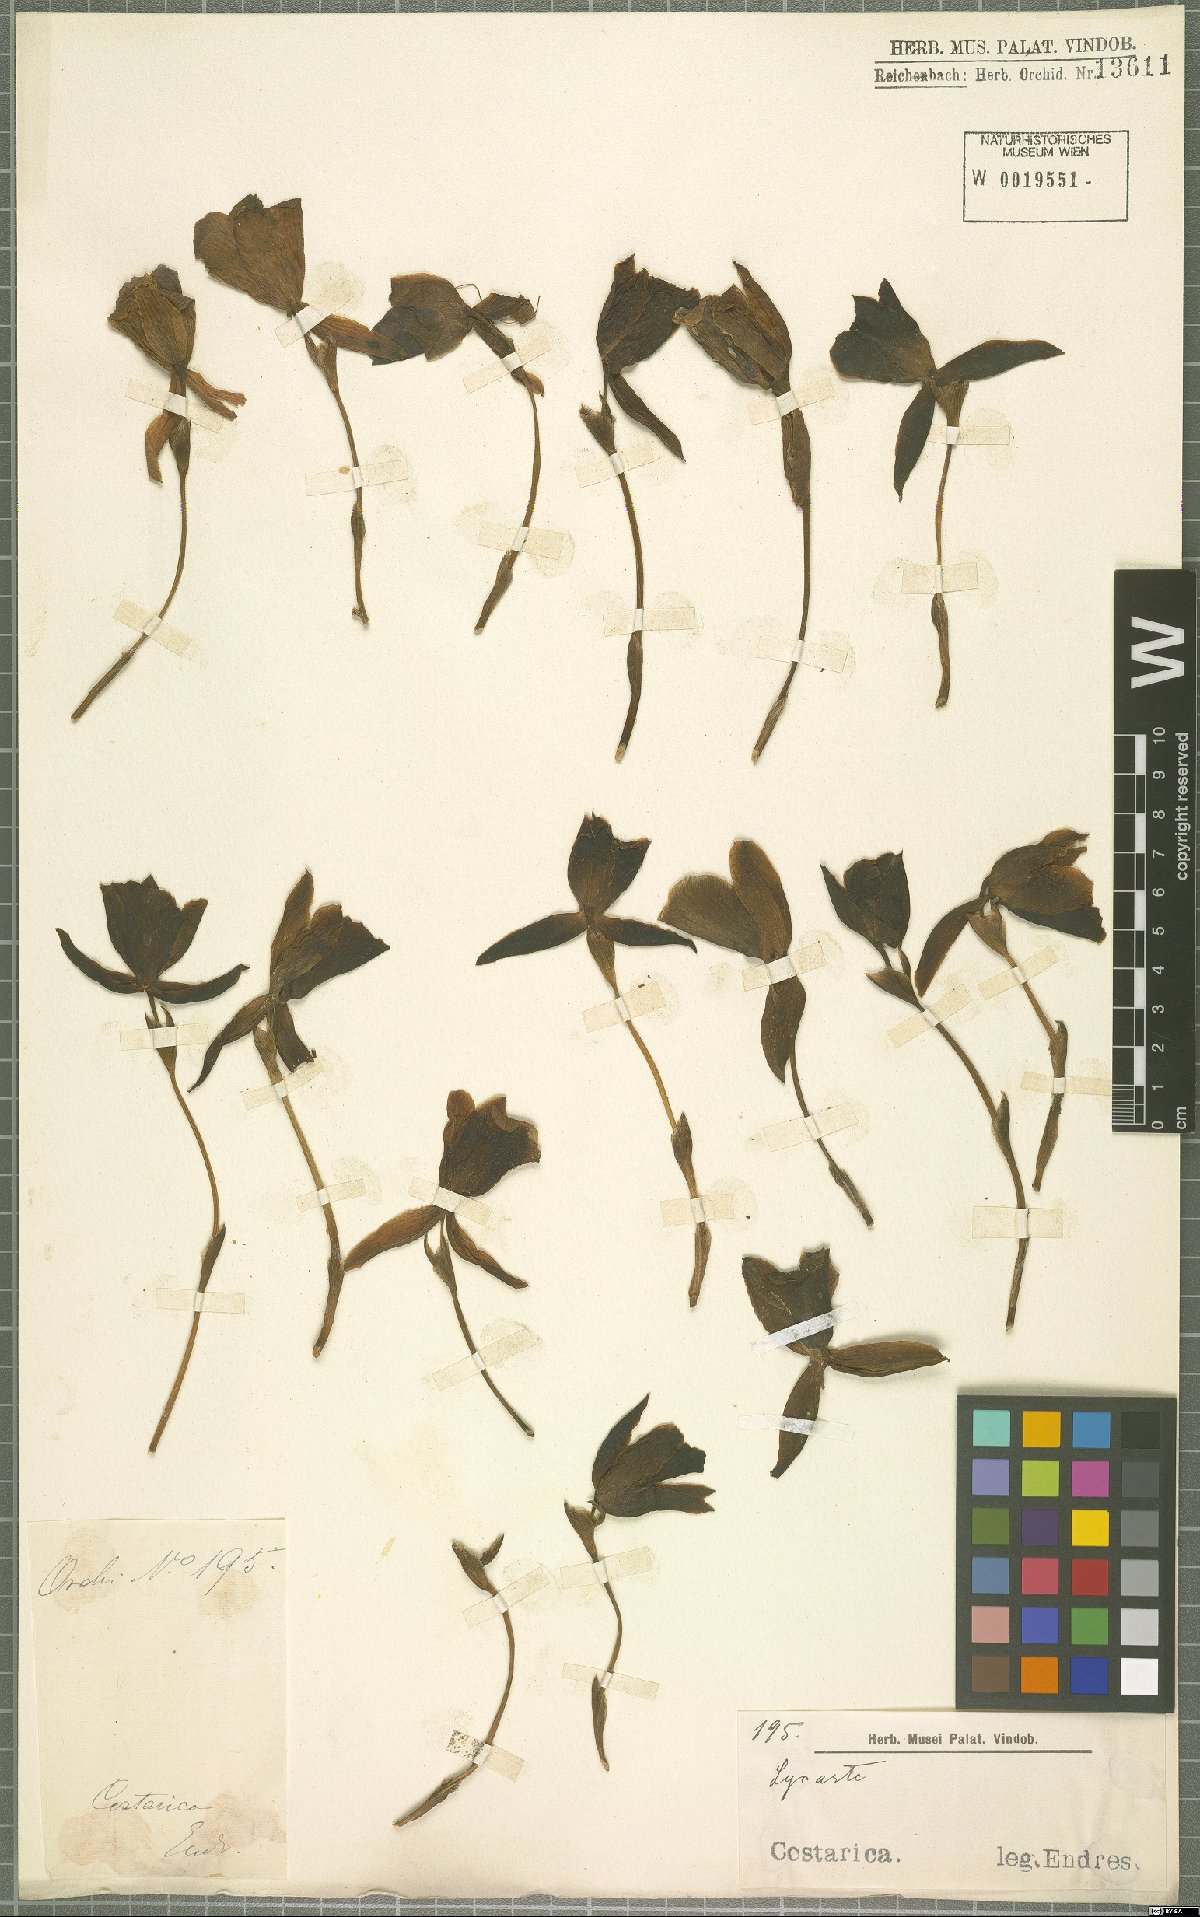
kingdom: Plantae
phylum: Tracheophyta
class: Liliopsida
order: Asparagales
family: Orchidaceae
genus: Lycaste
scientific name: Lycaste
